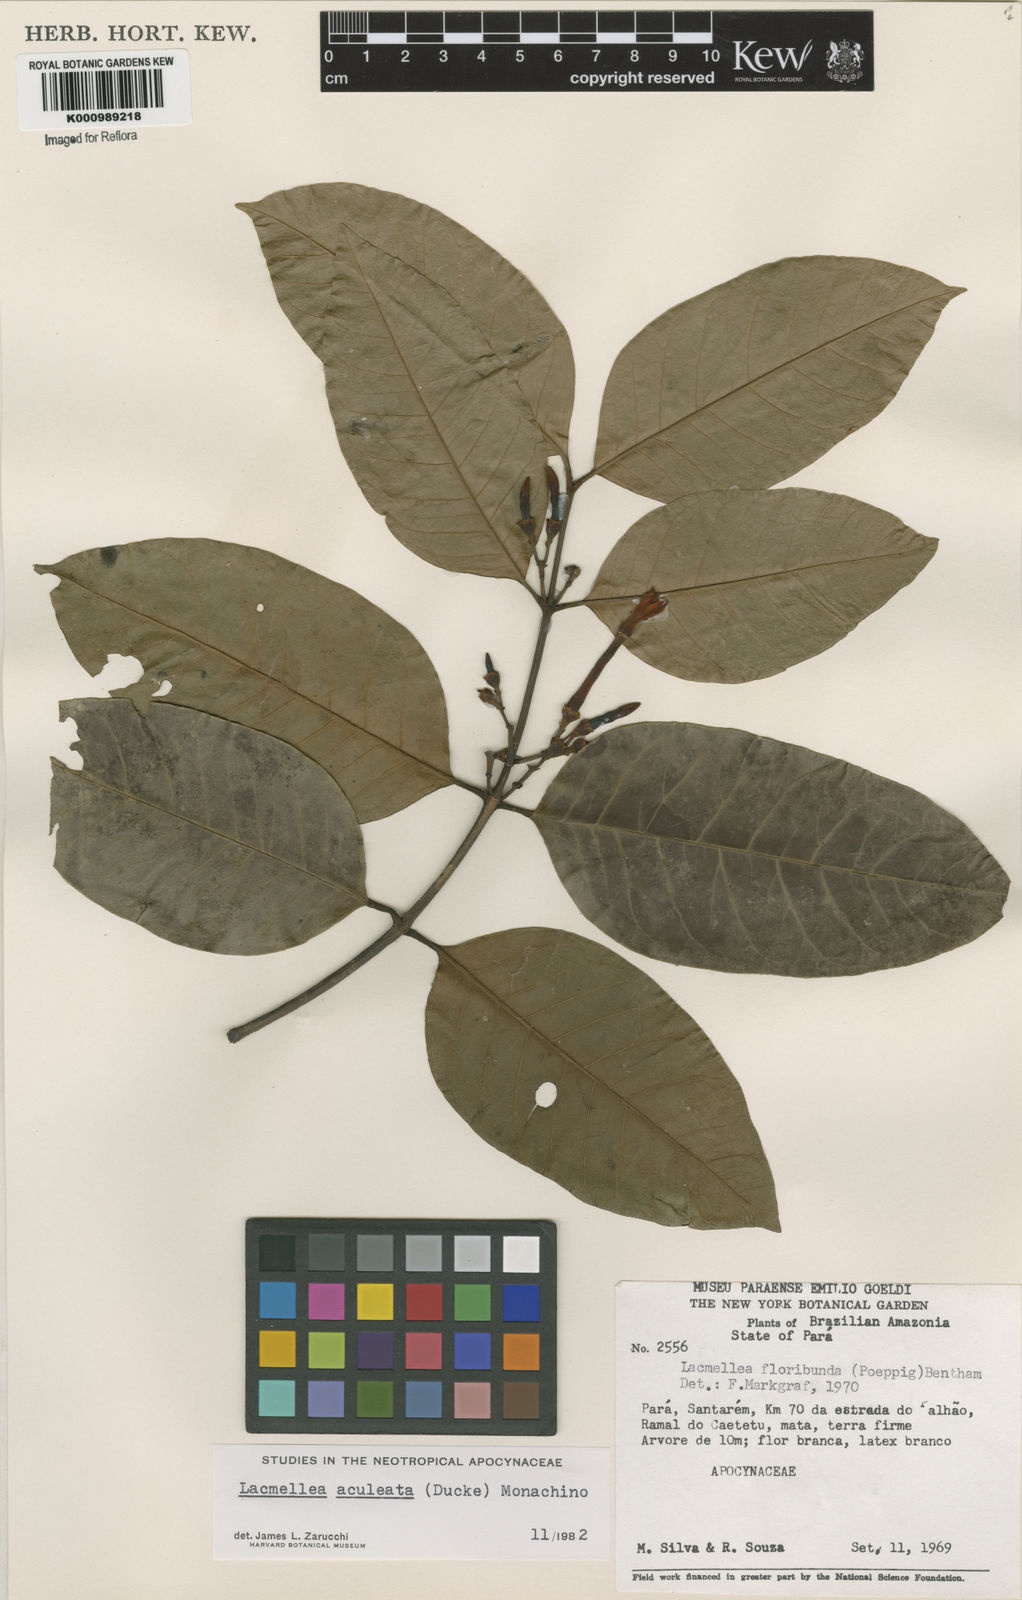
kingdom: Plantae
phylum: Tracheophyta
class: Magnoliopsida
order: Gentianales
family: Apocynaceae
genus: Lacmellea
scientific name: Lacmellea floribunda
